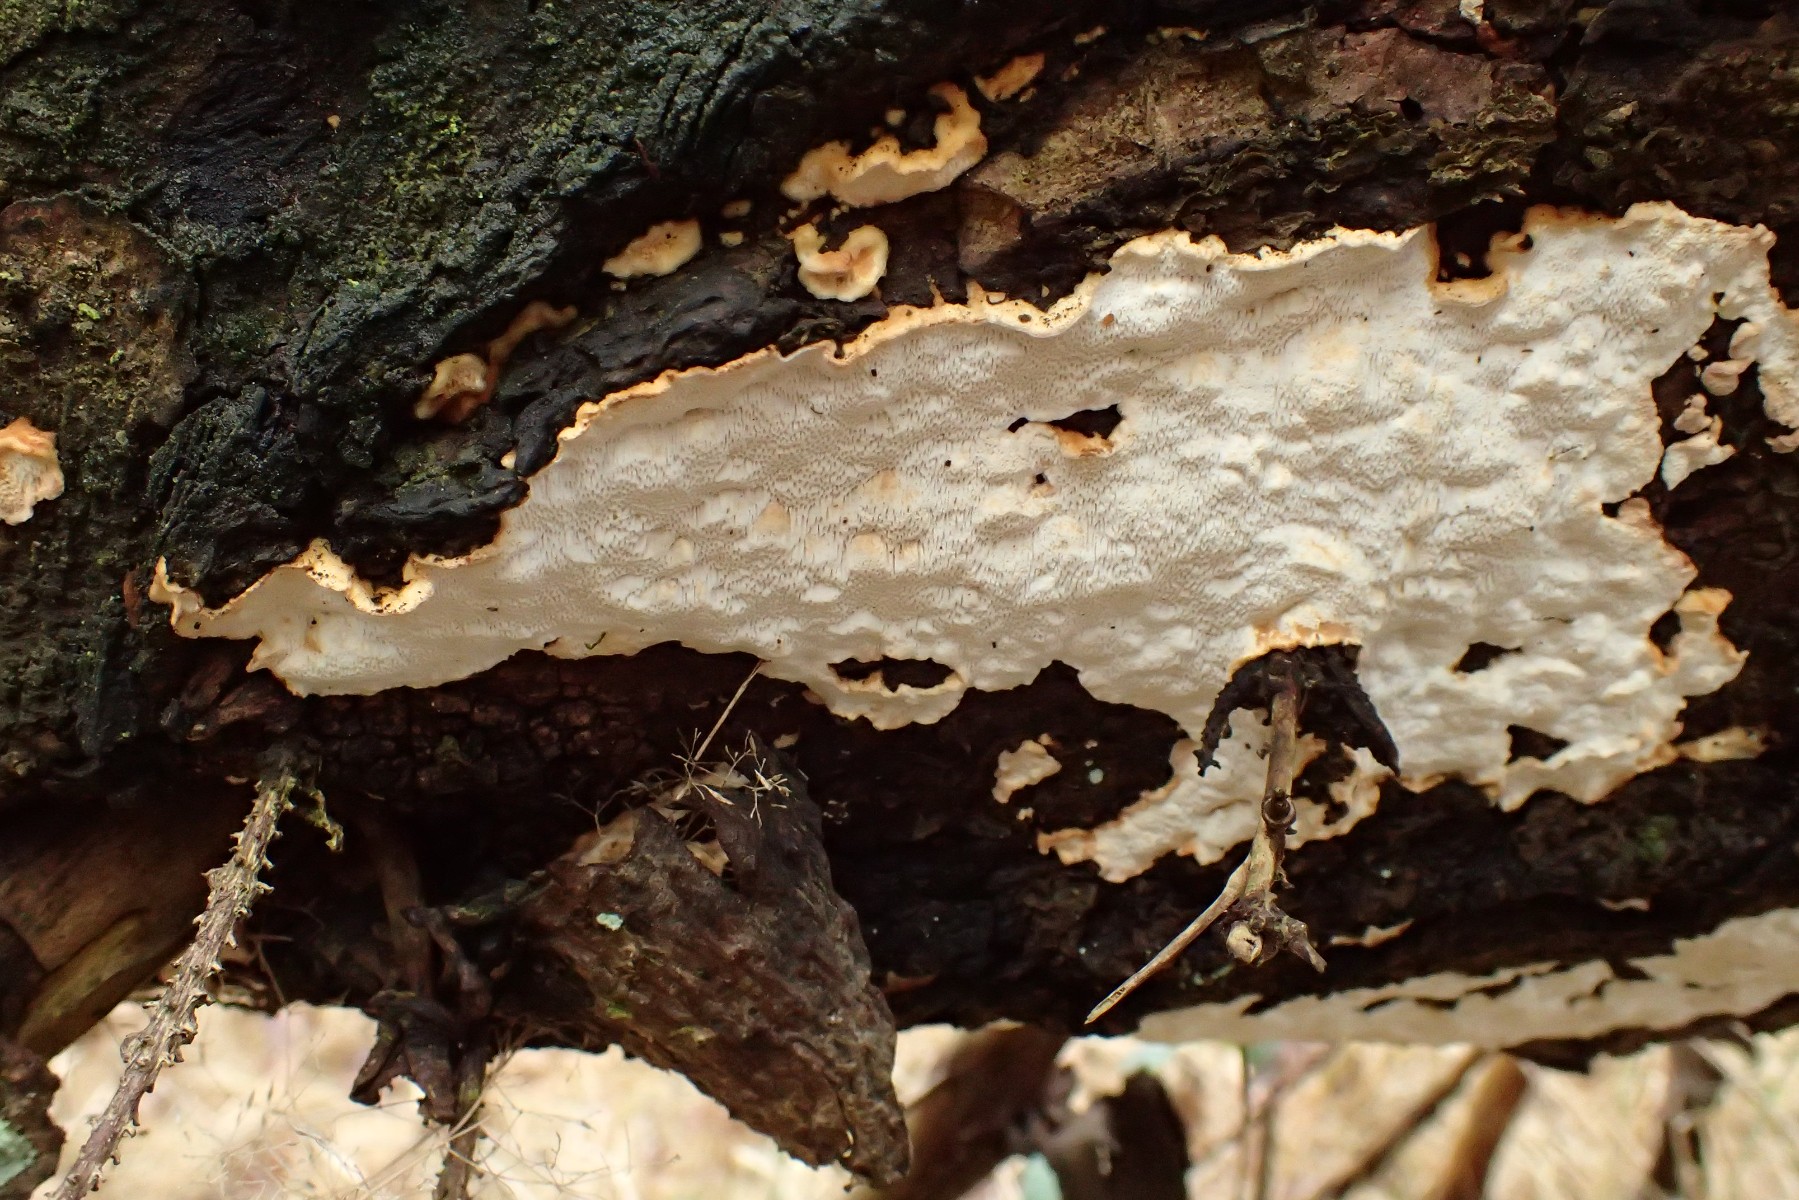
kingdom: Fungi
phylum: Basidiomycota
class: Agaricomycetes
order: Polyporales
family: Fomitopsidaceae
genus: Neoantrodia
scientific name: Neoantrodia serialis
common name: række-sejporesvamp
